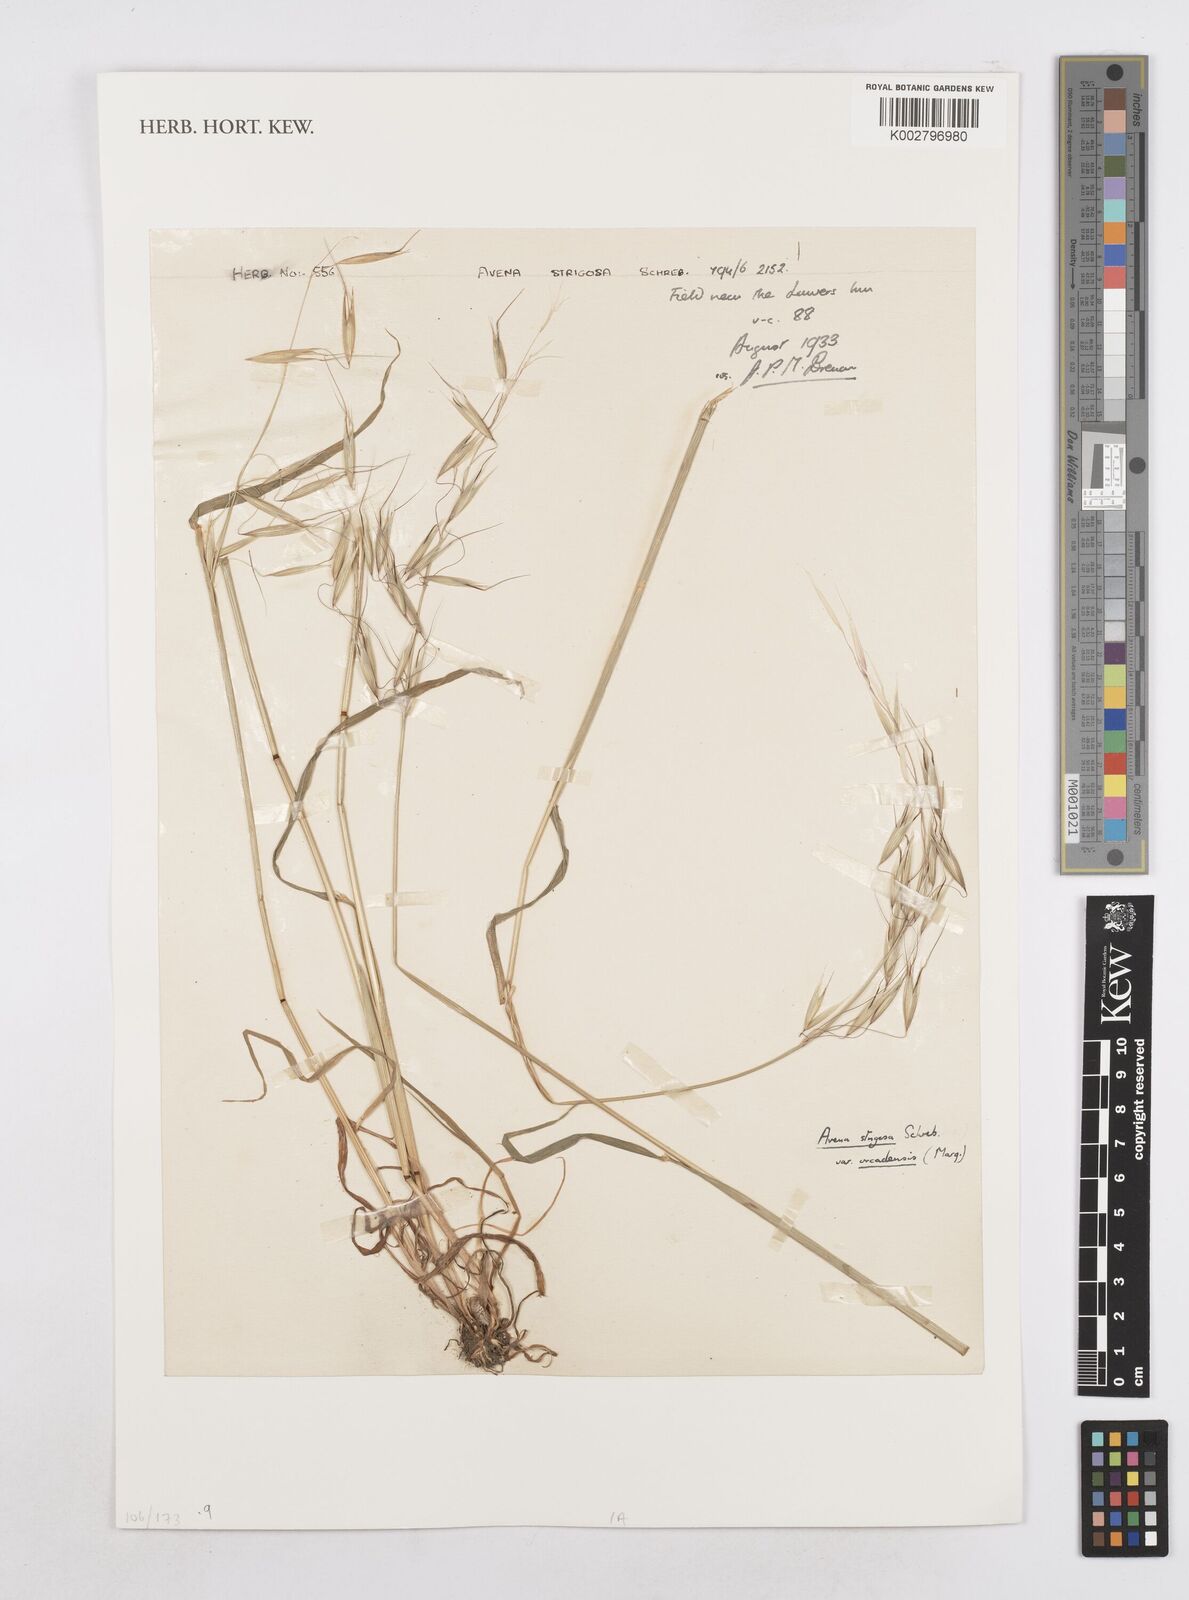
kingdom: Plantae
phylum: Tracheophyta
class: Liliopsida
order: Poales
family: Poaceae
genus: Avena
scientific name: Avena strigosa
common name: Bristle oat
